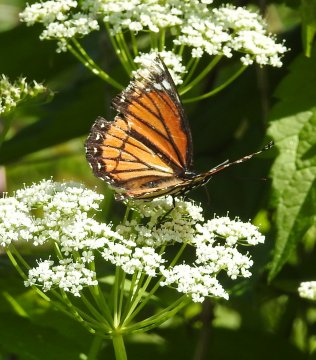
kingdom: Animalia
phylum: Arthropoda
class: Insecta
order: Lepidoptera
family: Nymphalidae
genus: Limenitis
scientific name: Limenitis archippus
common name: Viceroy
